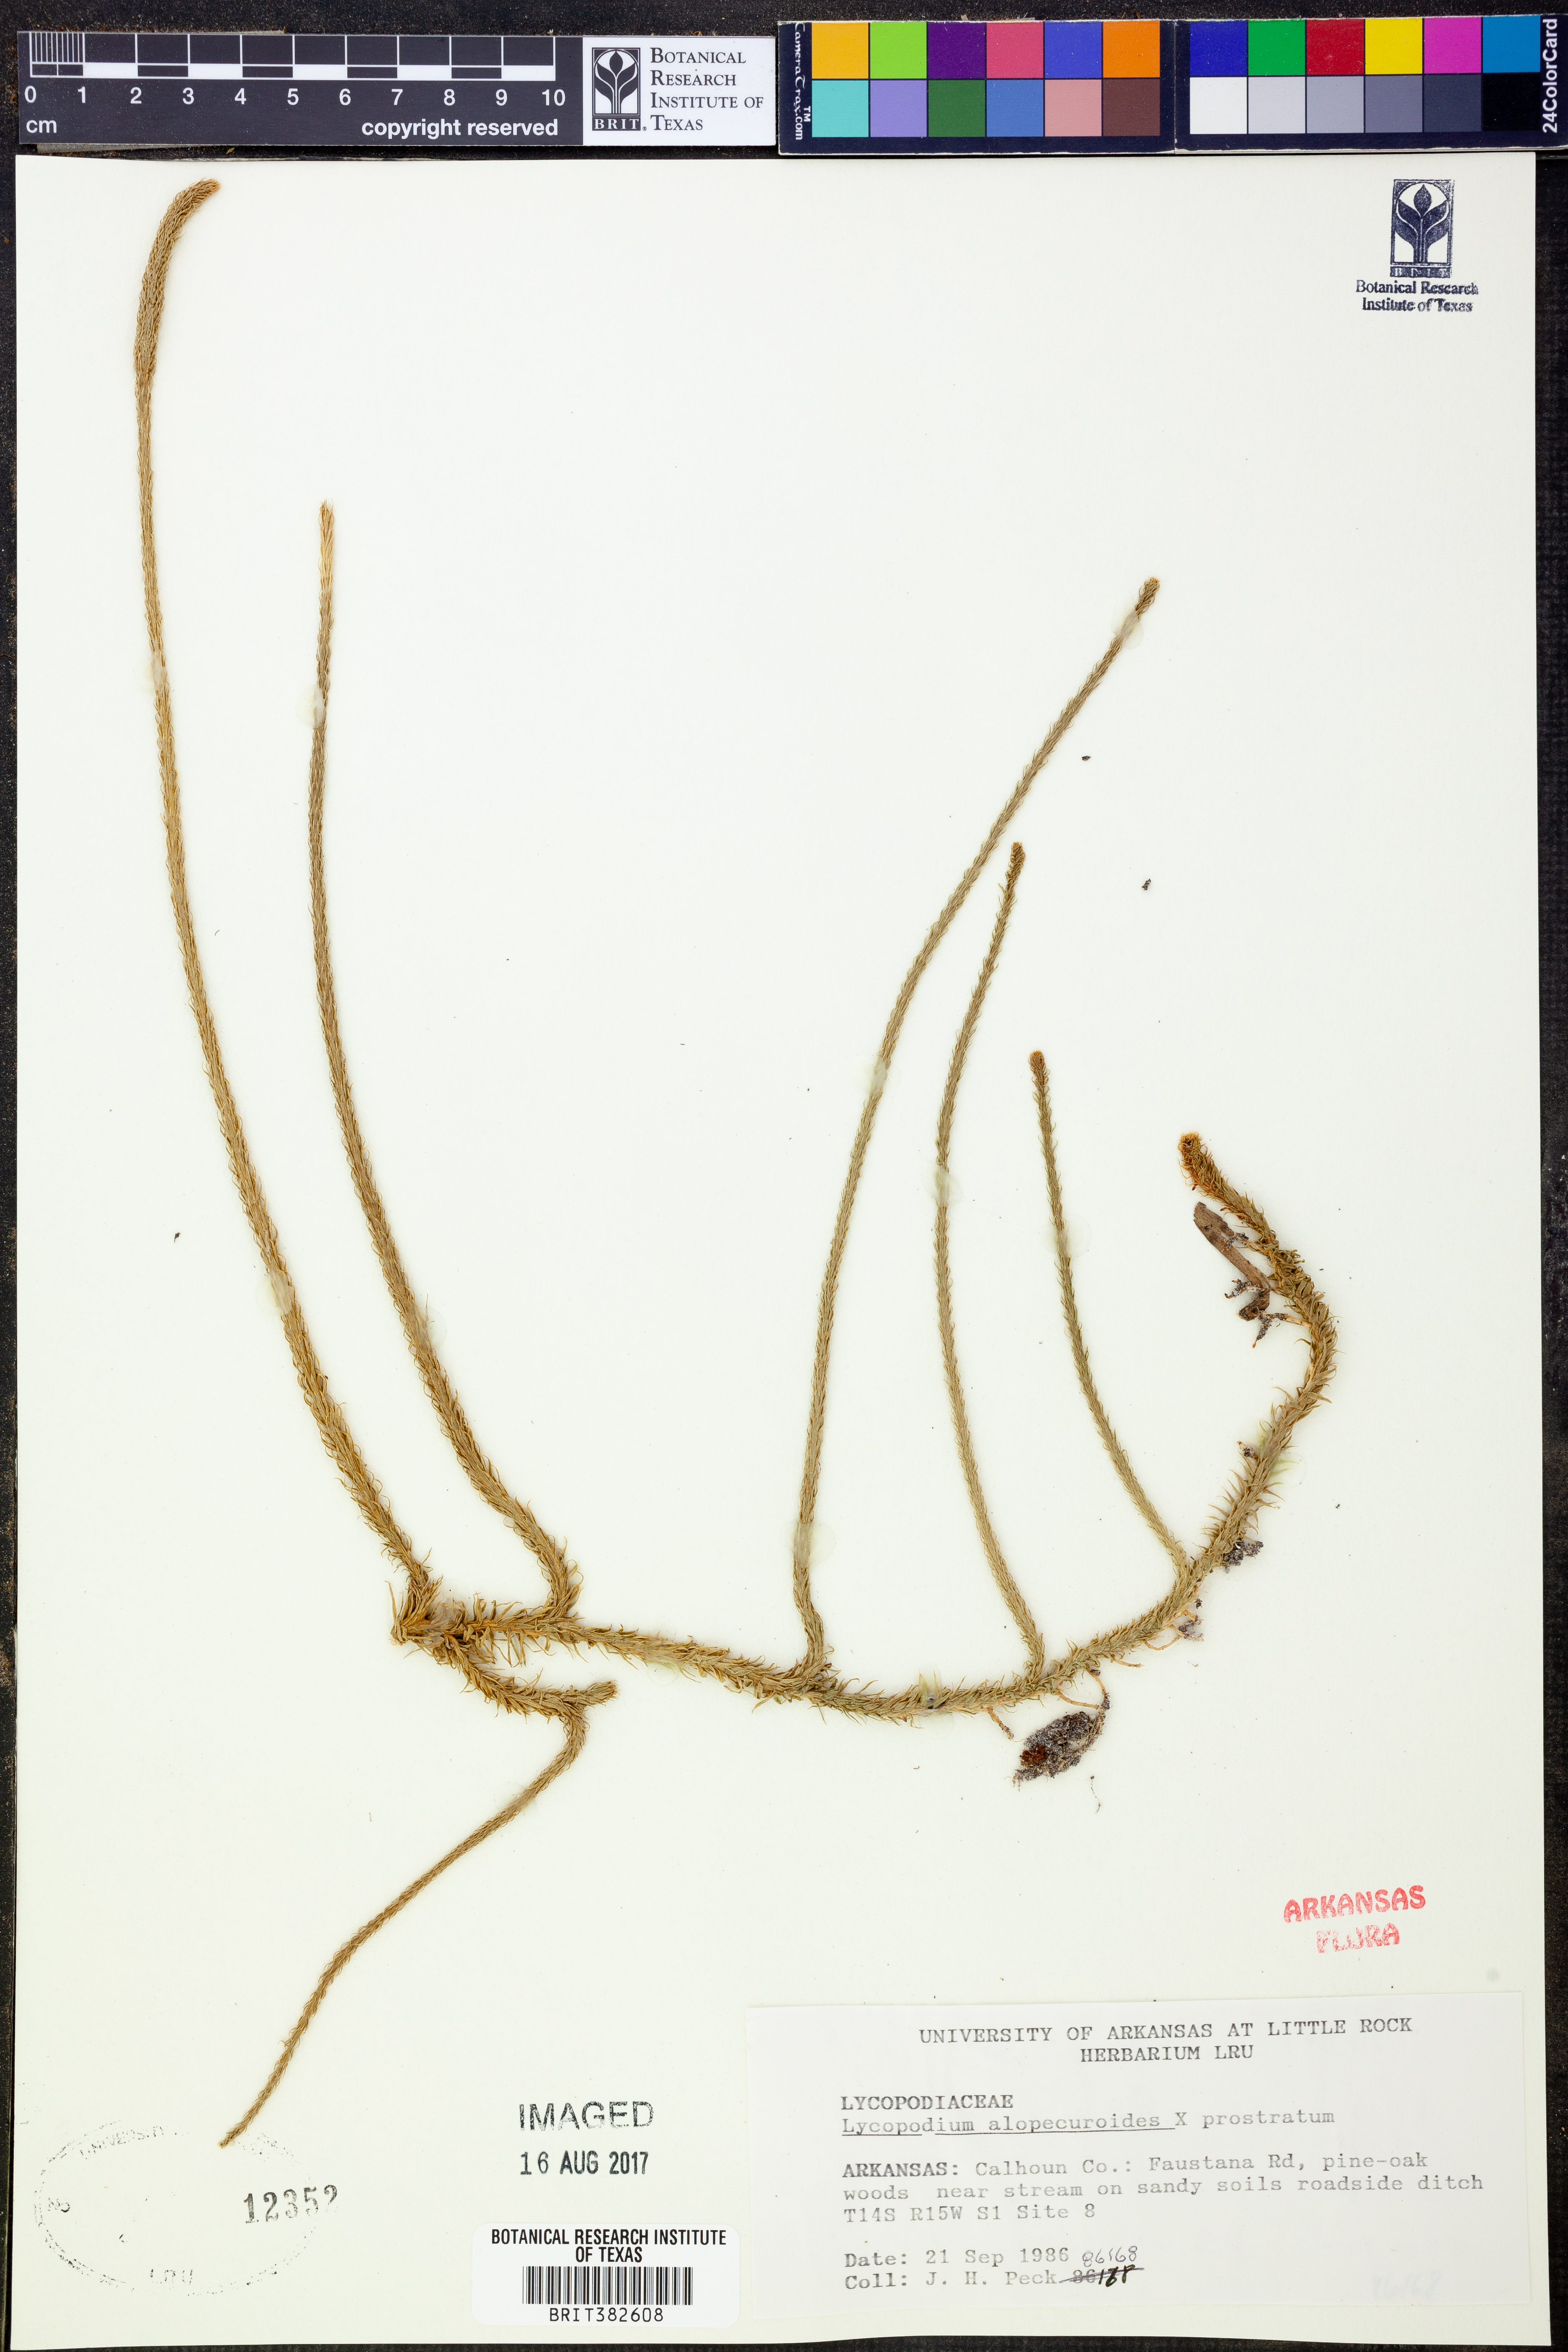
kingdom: Plantae
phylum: Tracheophyta
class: Lycopodiopsida
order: Lycopodiales
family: Lycopodiaceae
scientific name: Lycopodiaceae
